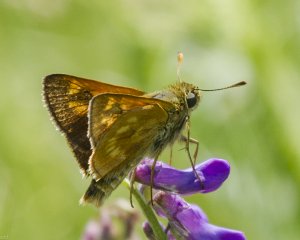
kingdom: Animalia
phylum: Arthropoda
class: Insecta
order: Lepidoptera
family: Hesperiidae
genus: Polites
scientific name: Polites
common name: Long Dash Skipper
